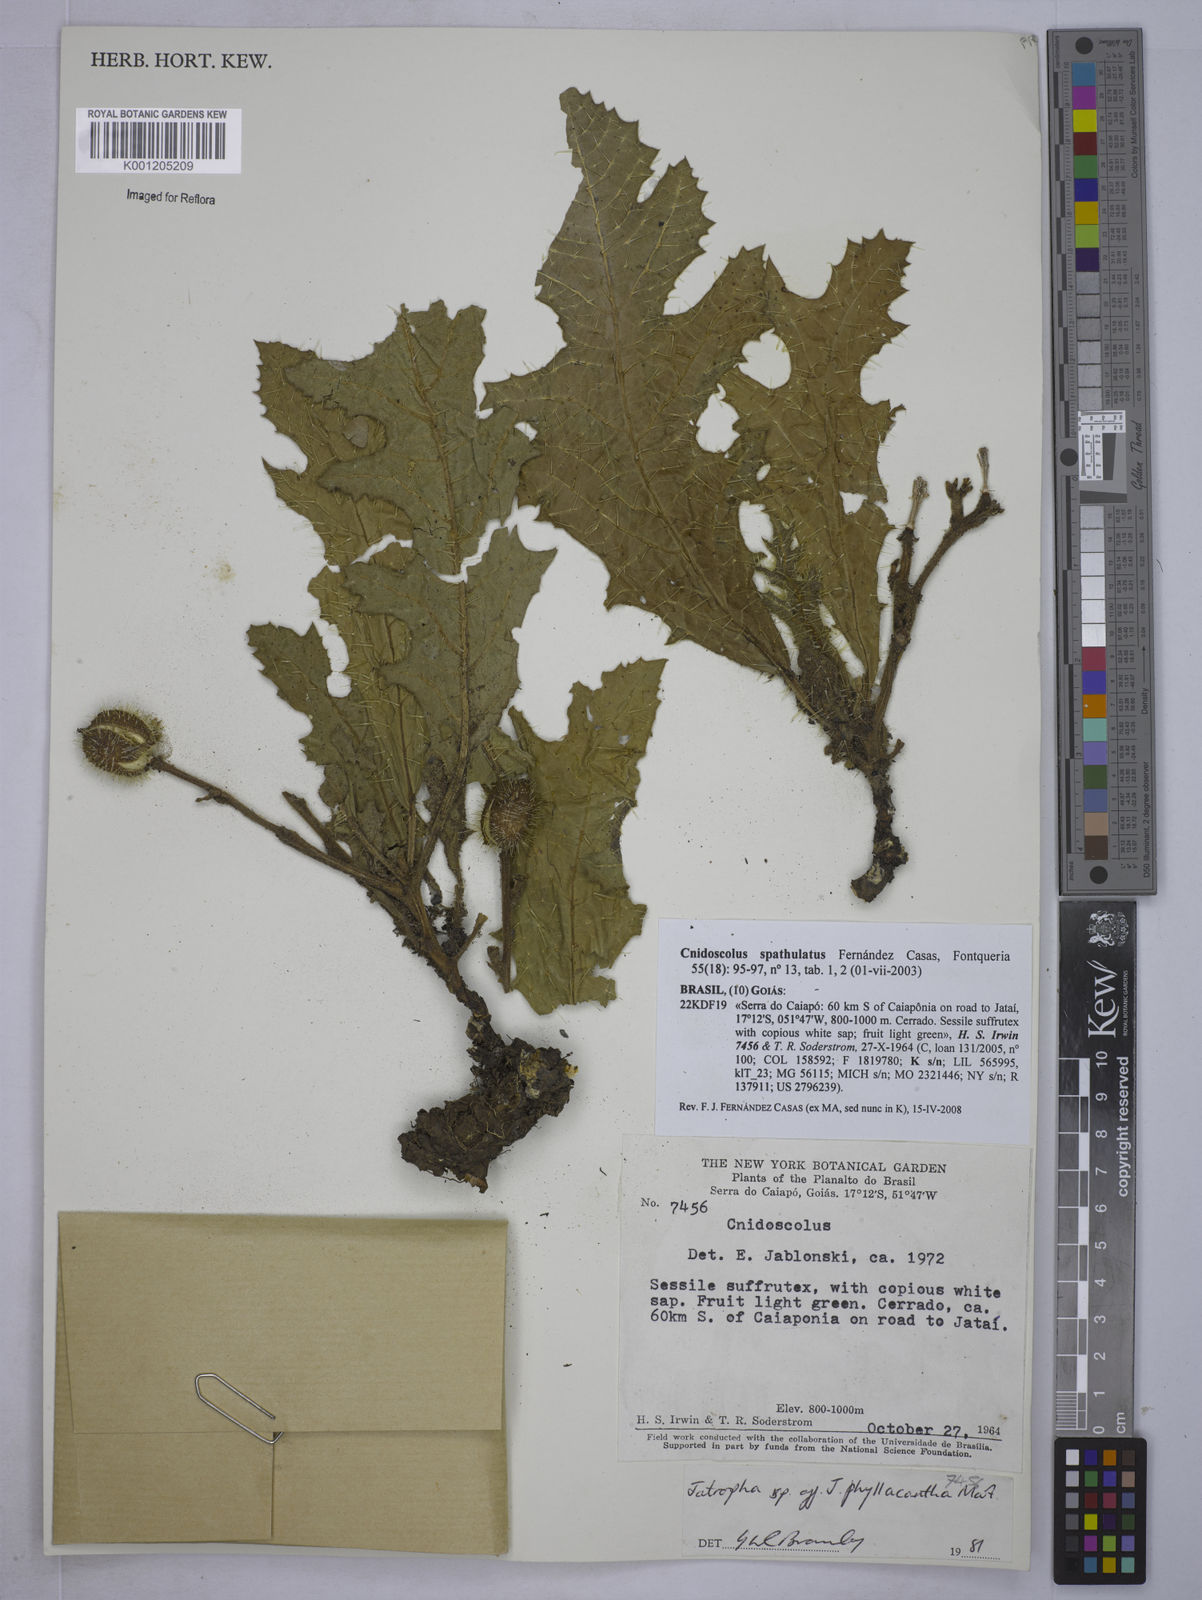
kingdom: Plantae
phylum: Tracheophyta
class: Magnoliopsida
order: Malpighiales
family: Euphorbiaceae
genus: Cnidoscolus
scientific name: Cnidoscolus albomaculatus
